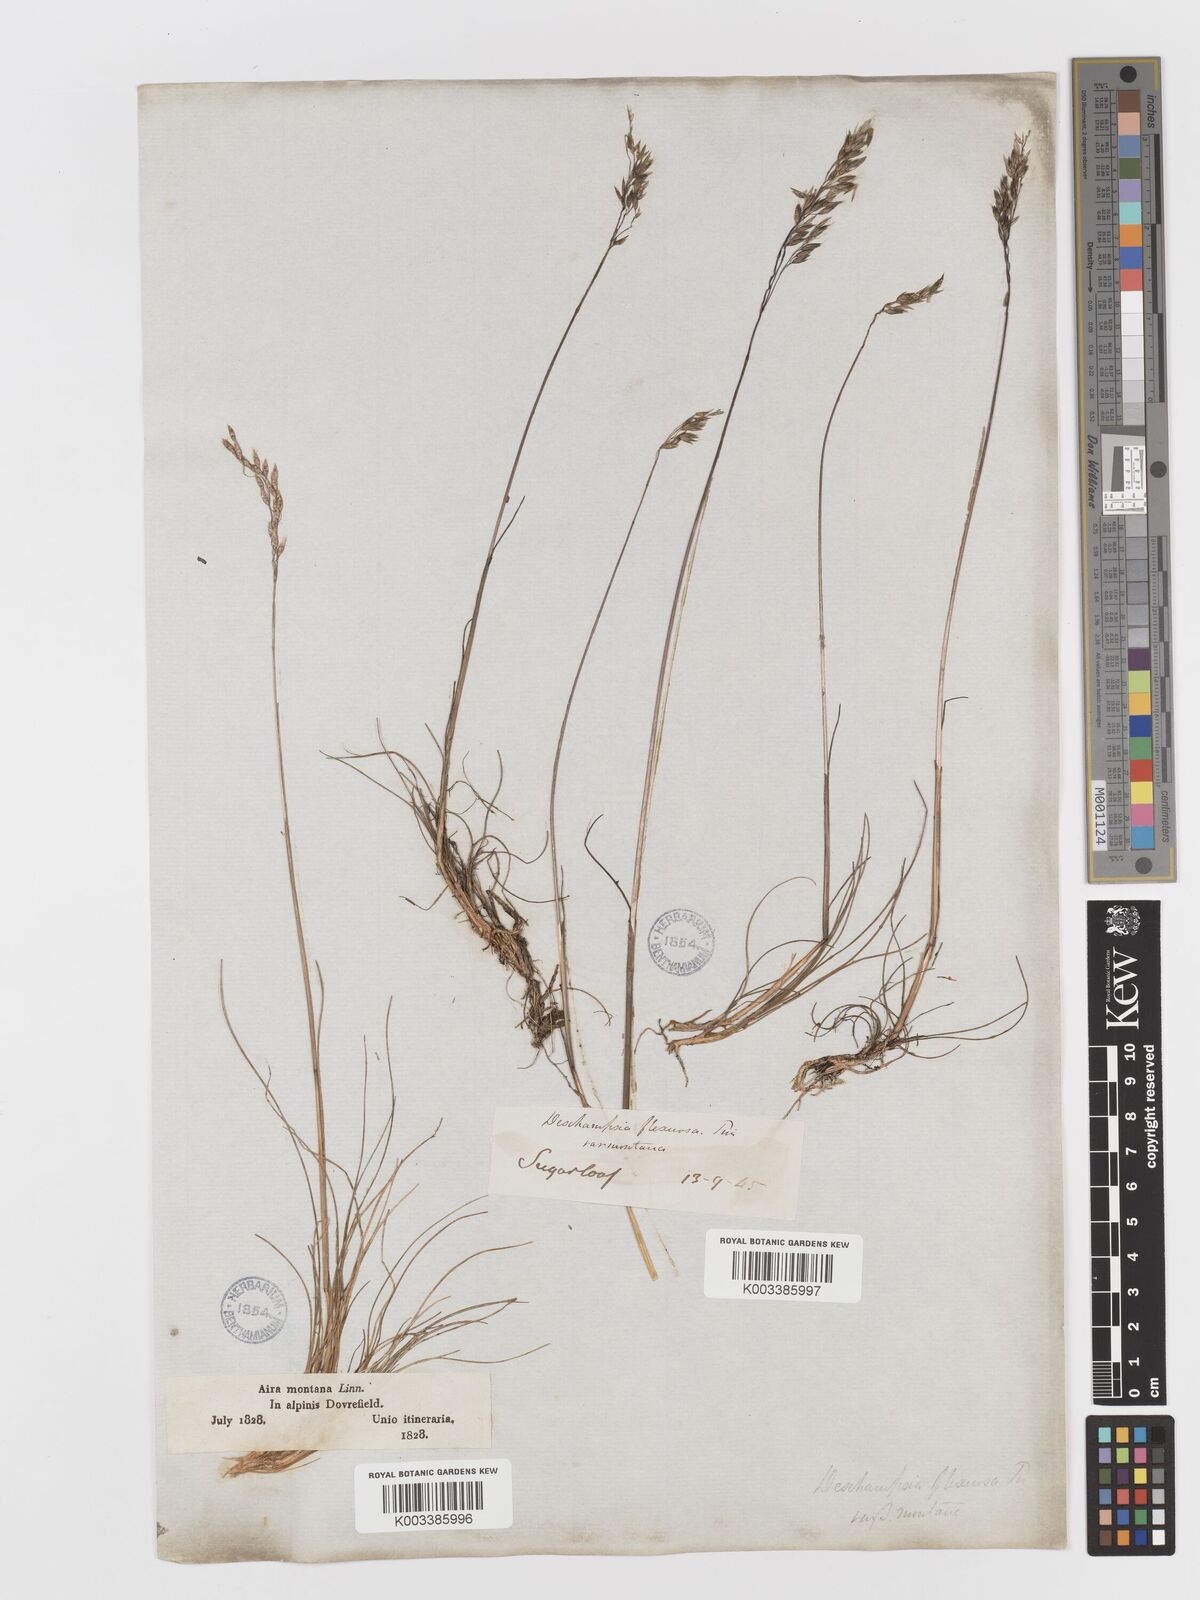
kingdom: Plantae
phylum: Tracheophyta
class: Liliopsida
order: Poales
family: Poaceae
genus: Avenella
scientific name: Avenella flexuosa
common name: Wavy hairgrass
